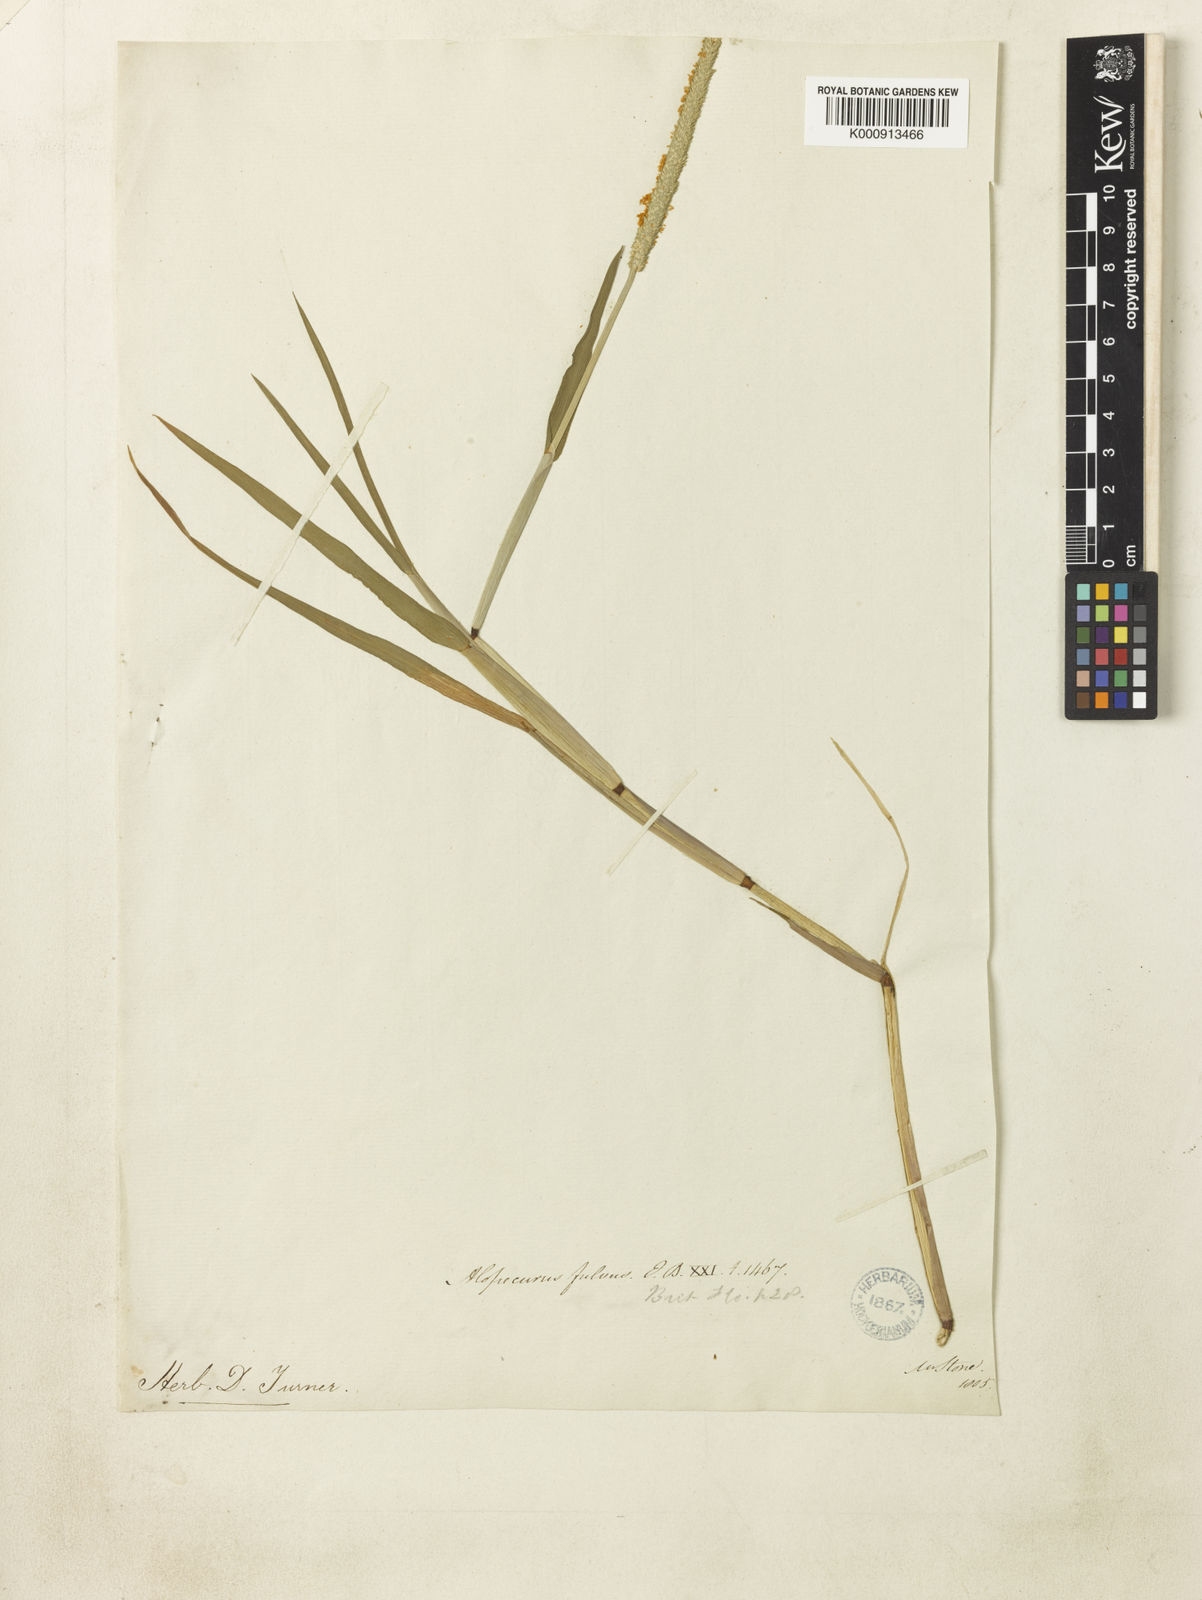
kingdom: Plantae
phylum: Tracheophyta
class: Liliopsida
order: Poales
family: Poaceae
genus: Alopecurus
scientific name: Alopecurus aequalis
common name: Orange foxtail
